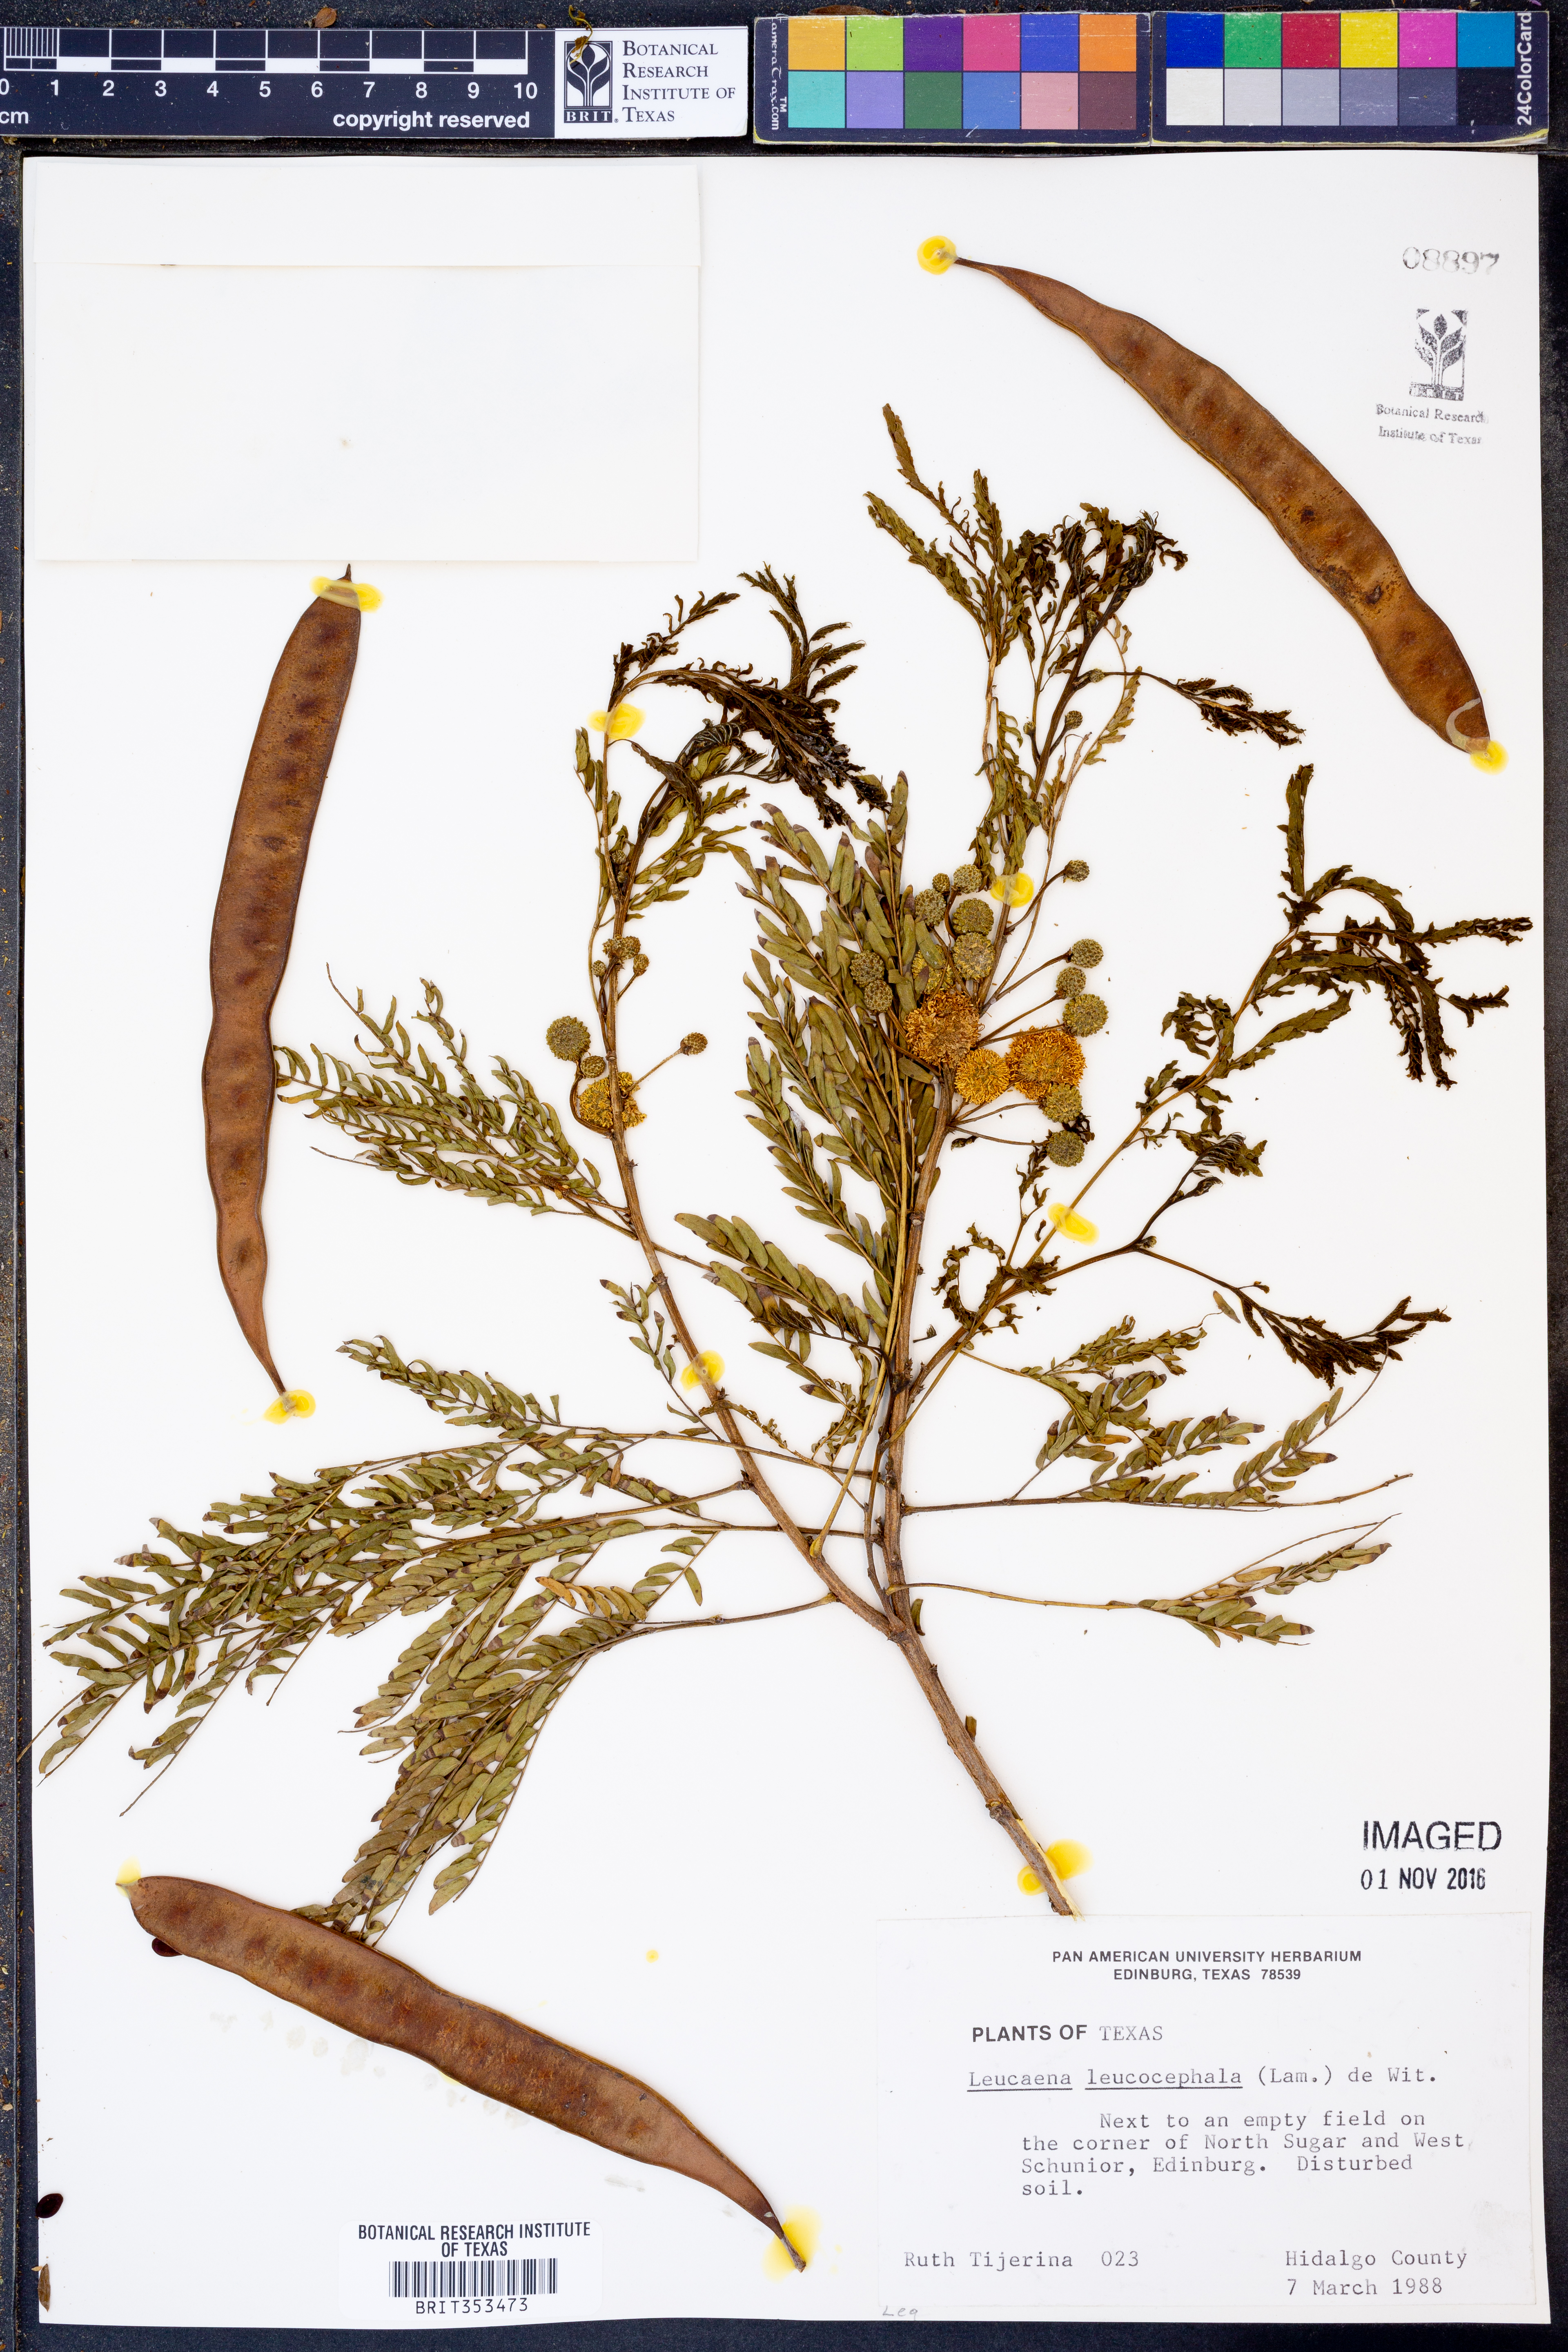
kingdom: Plantae
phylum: Tracheophyta
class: Magnoliopsida
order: Fabales
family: Fabaceae
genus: Leucaena
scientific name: Leucaena leucocephala
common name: White leadtree
